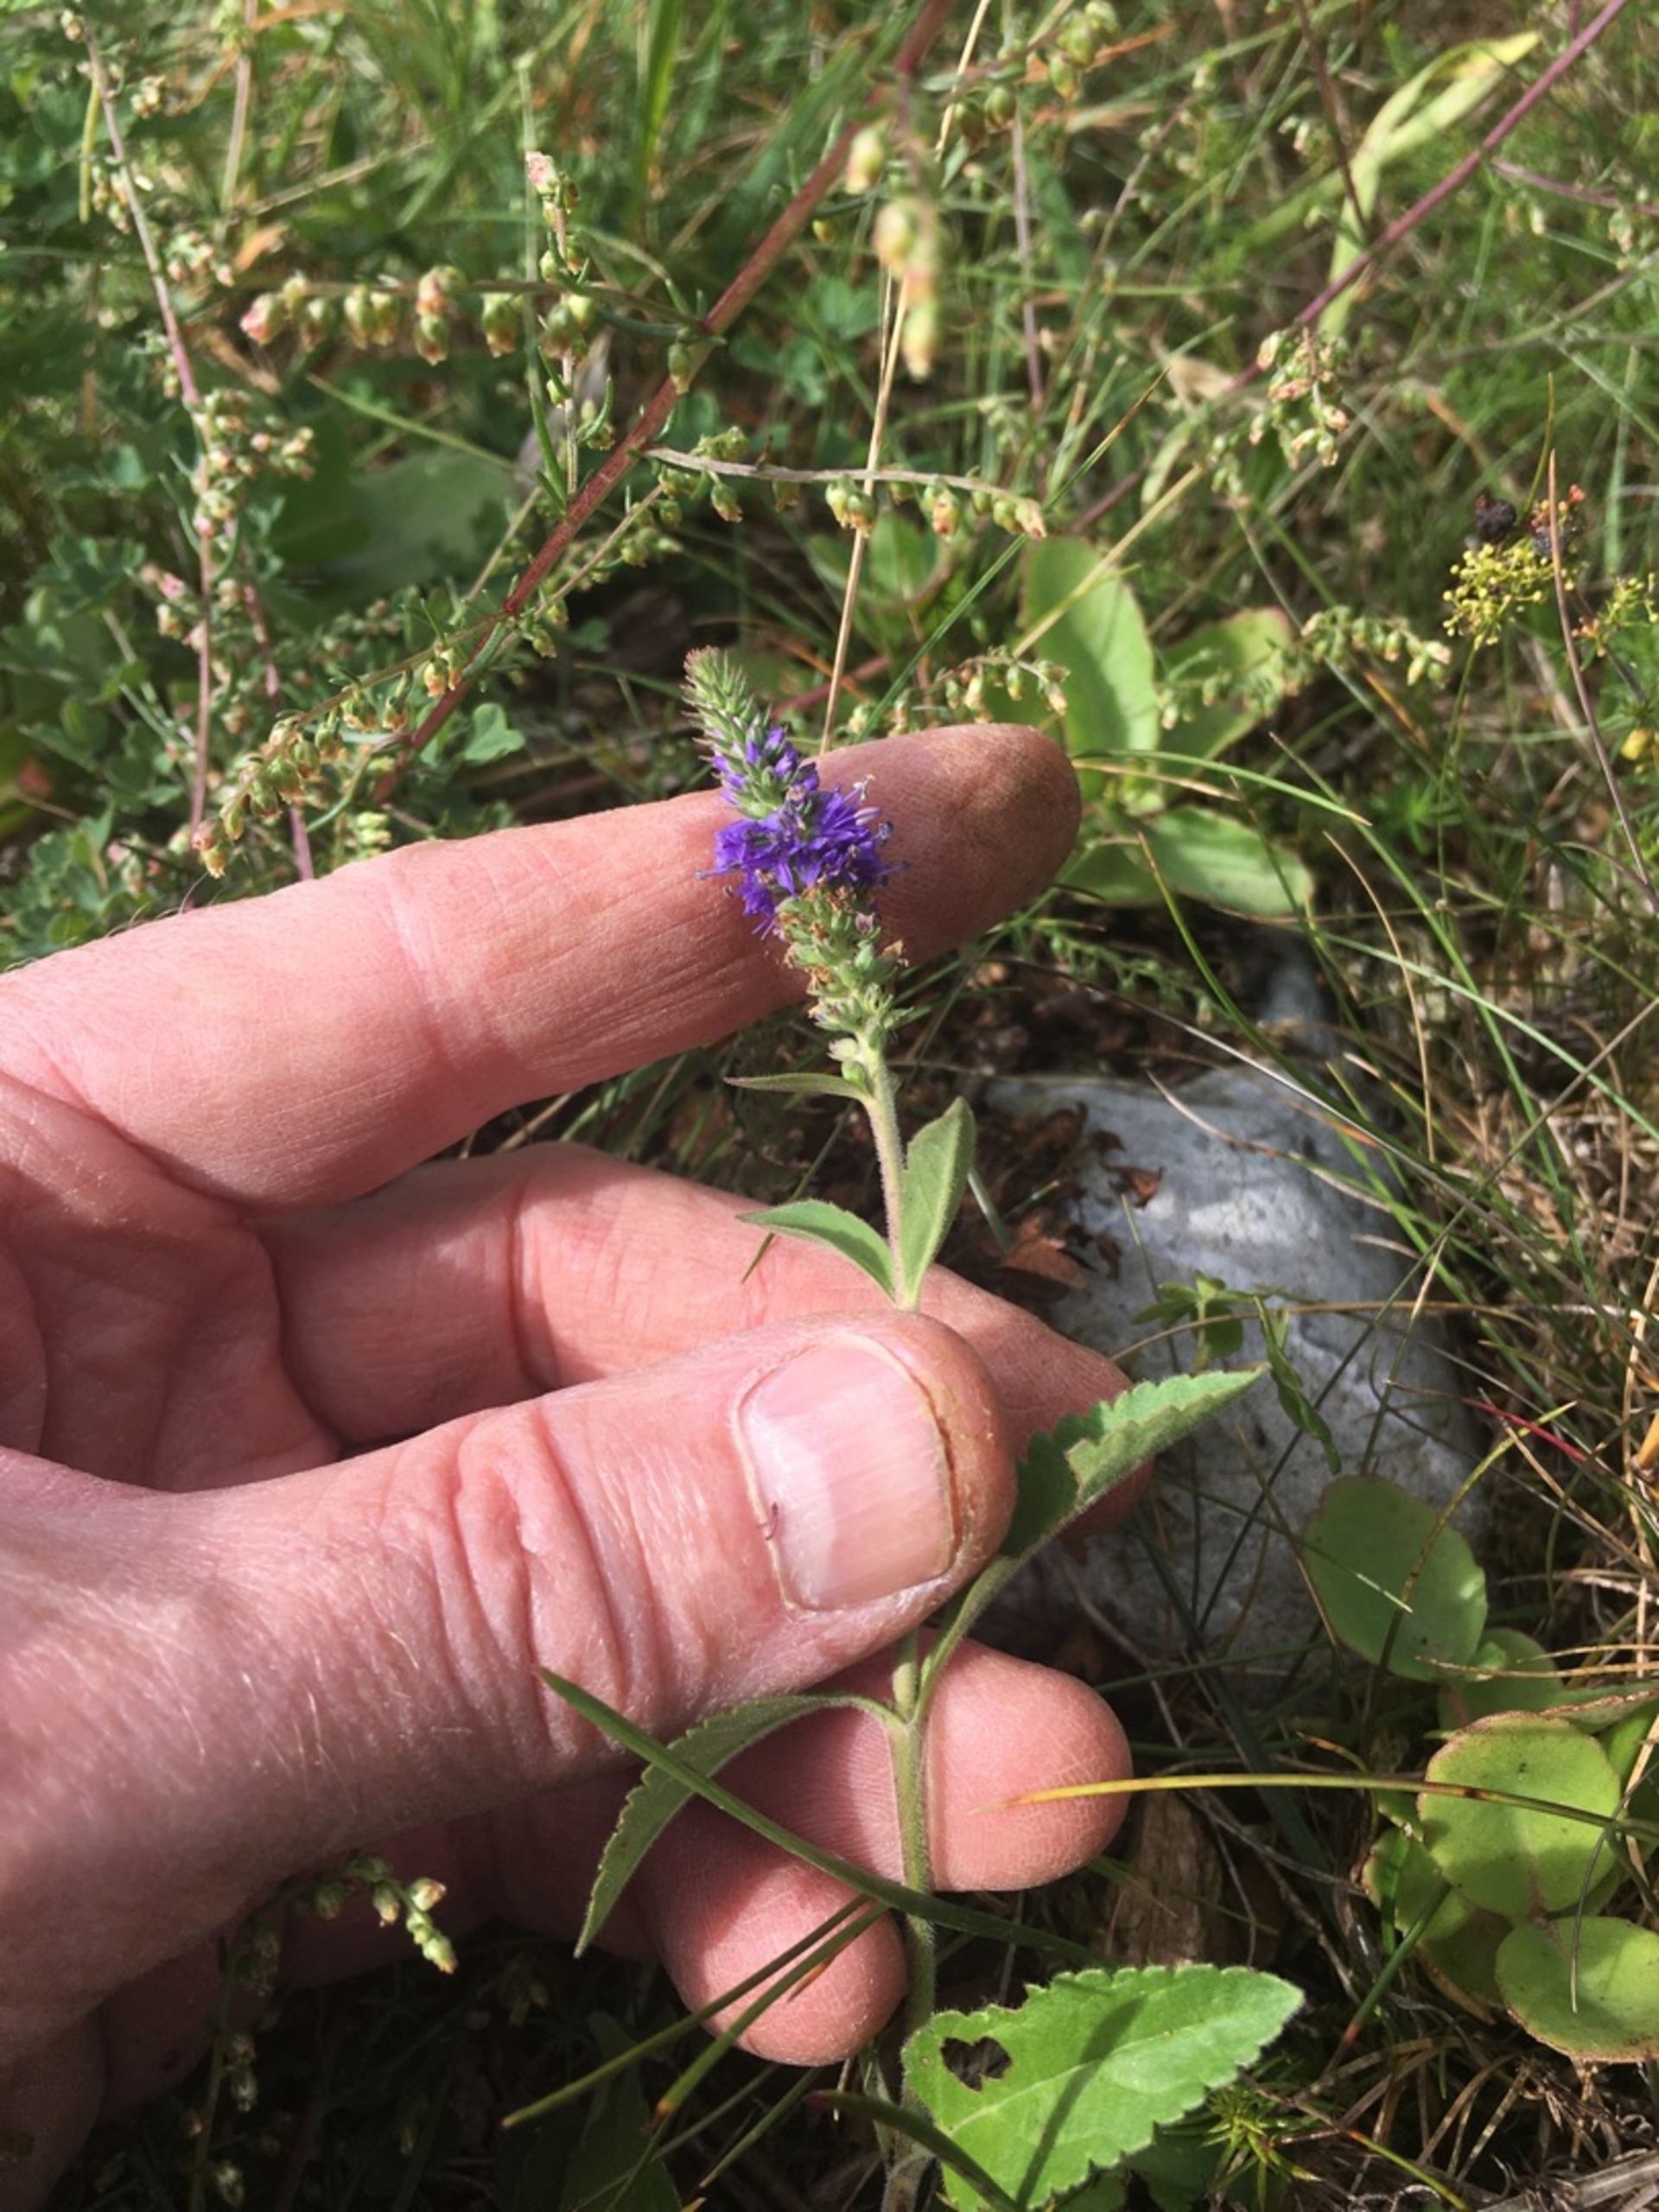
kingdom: Plantae
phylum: Tracheophyta
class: Magnoliopsida
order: Lamiales
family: Plantaginaceae
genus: Veronica
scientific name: Veronica spicata
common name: Aks-ærenpris
